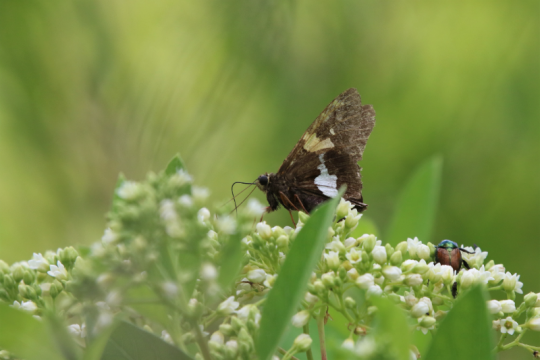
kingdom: Animalia
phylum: Arthropoda
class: Insecta
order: Lepidoptera
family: Hesperiidae
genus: Epargyreus
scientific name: Epargyreus clarus
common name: Silver-spotted Skipper
